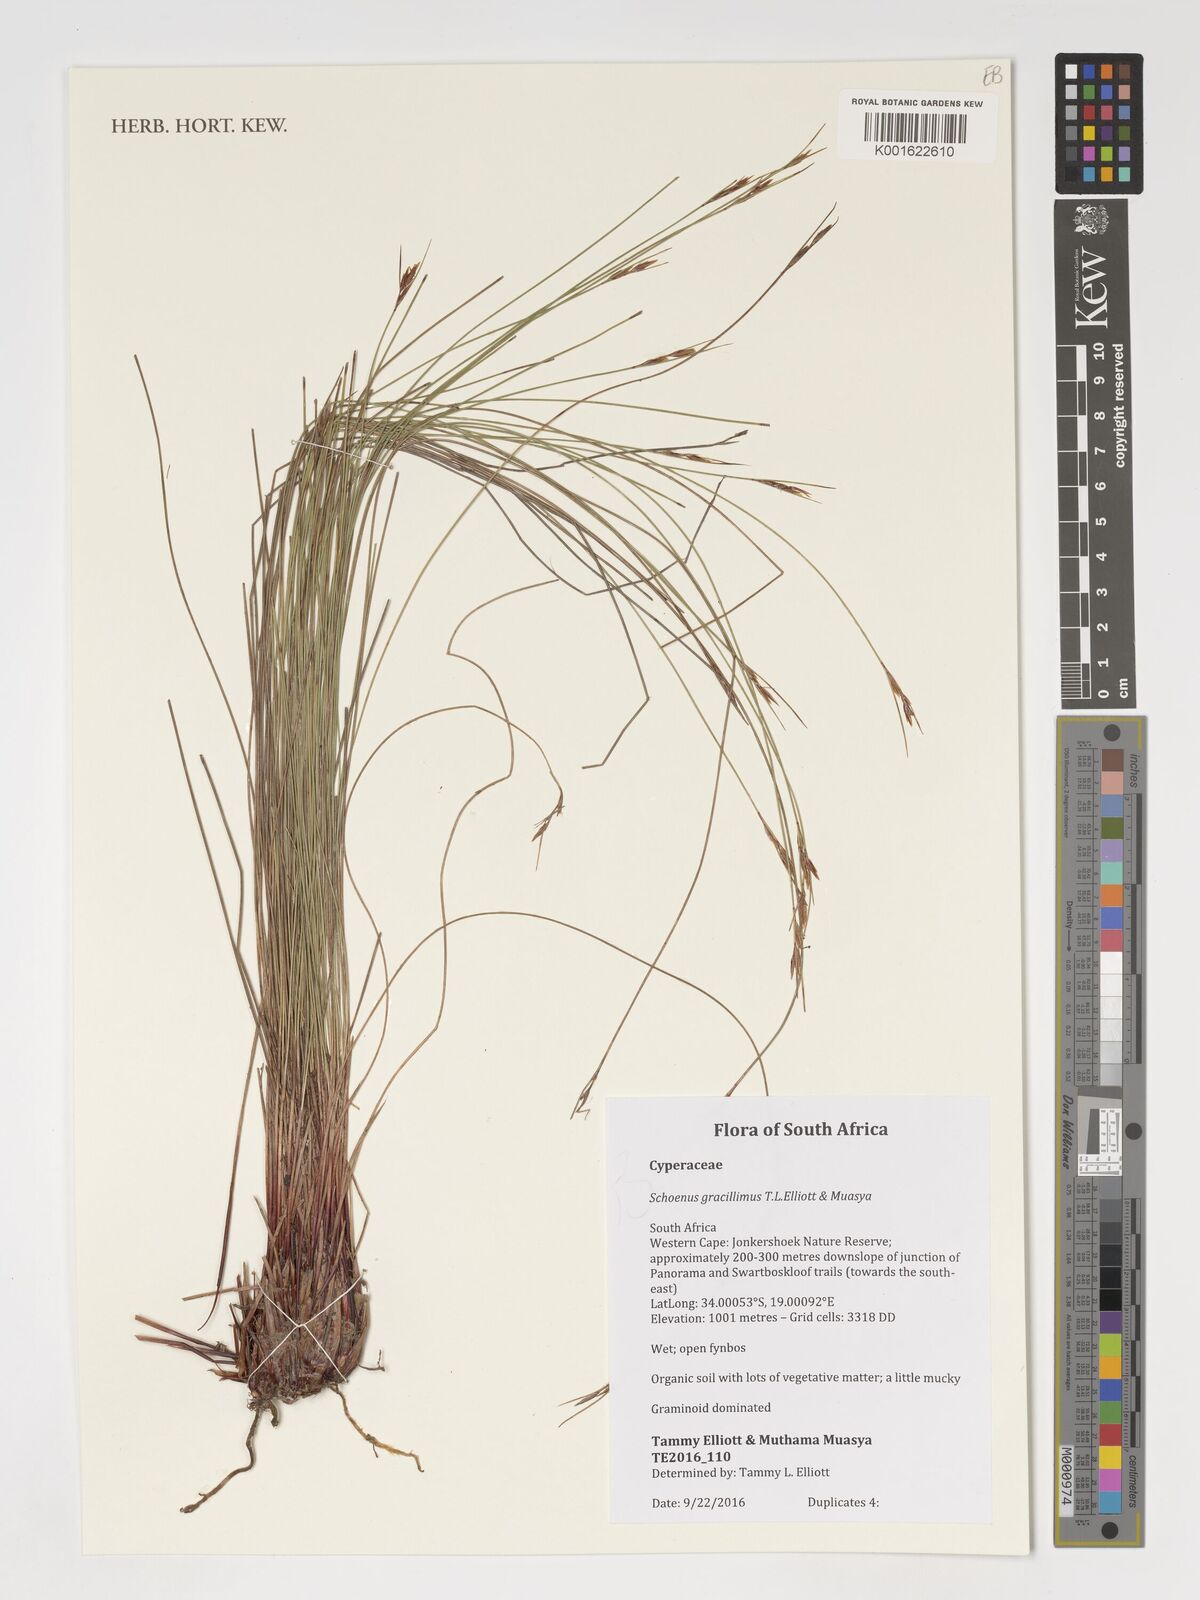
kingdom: Plantae
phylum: Tracheophyta
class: Liliopsida
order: Poales
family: Cyperaceae
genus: Schoenus
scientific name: Schoenus gracillimus
